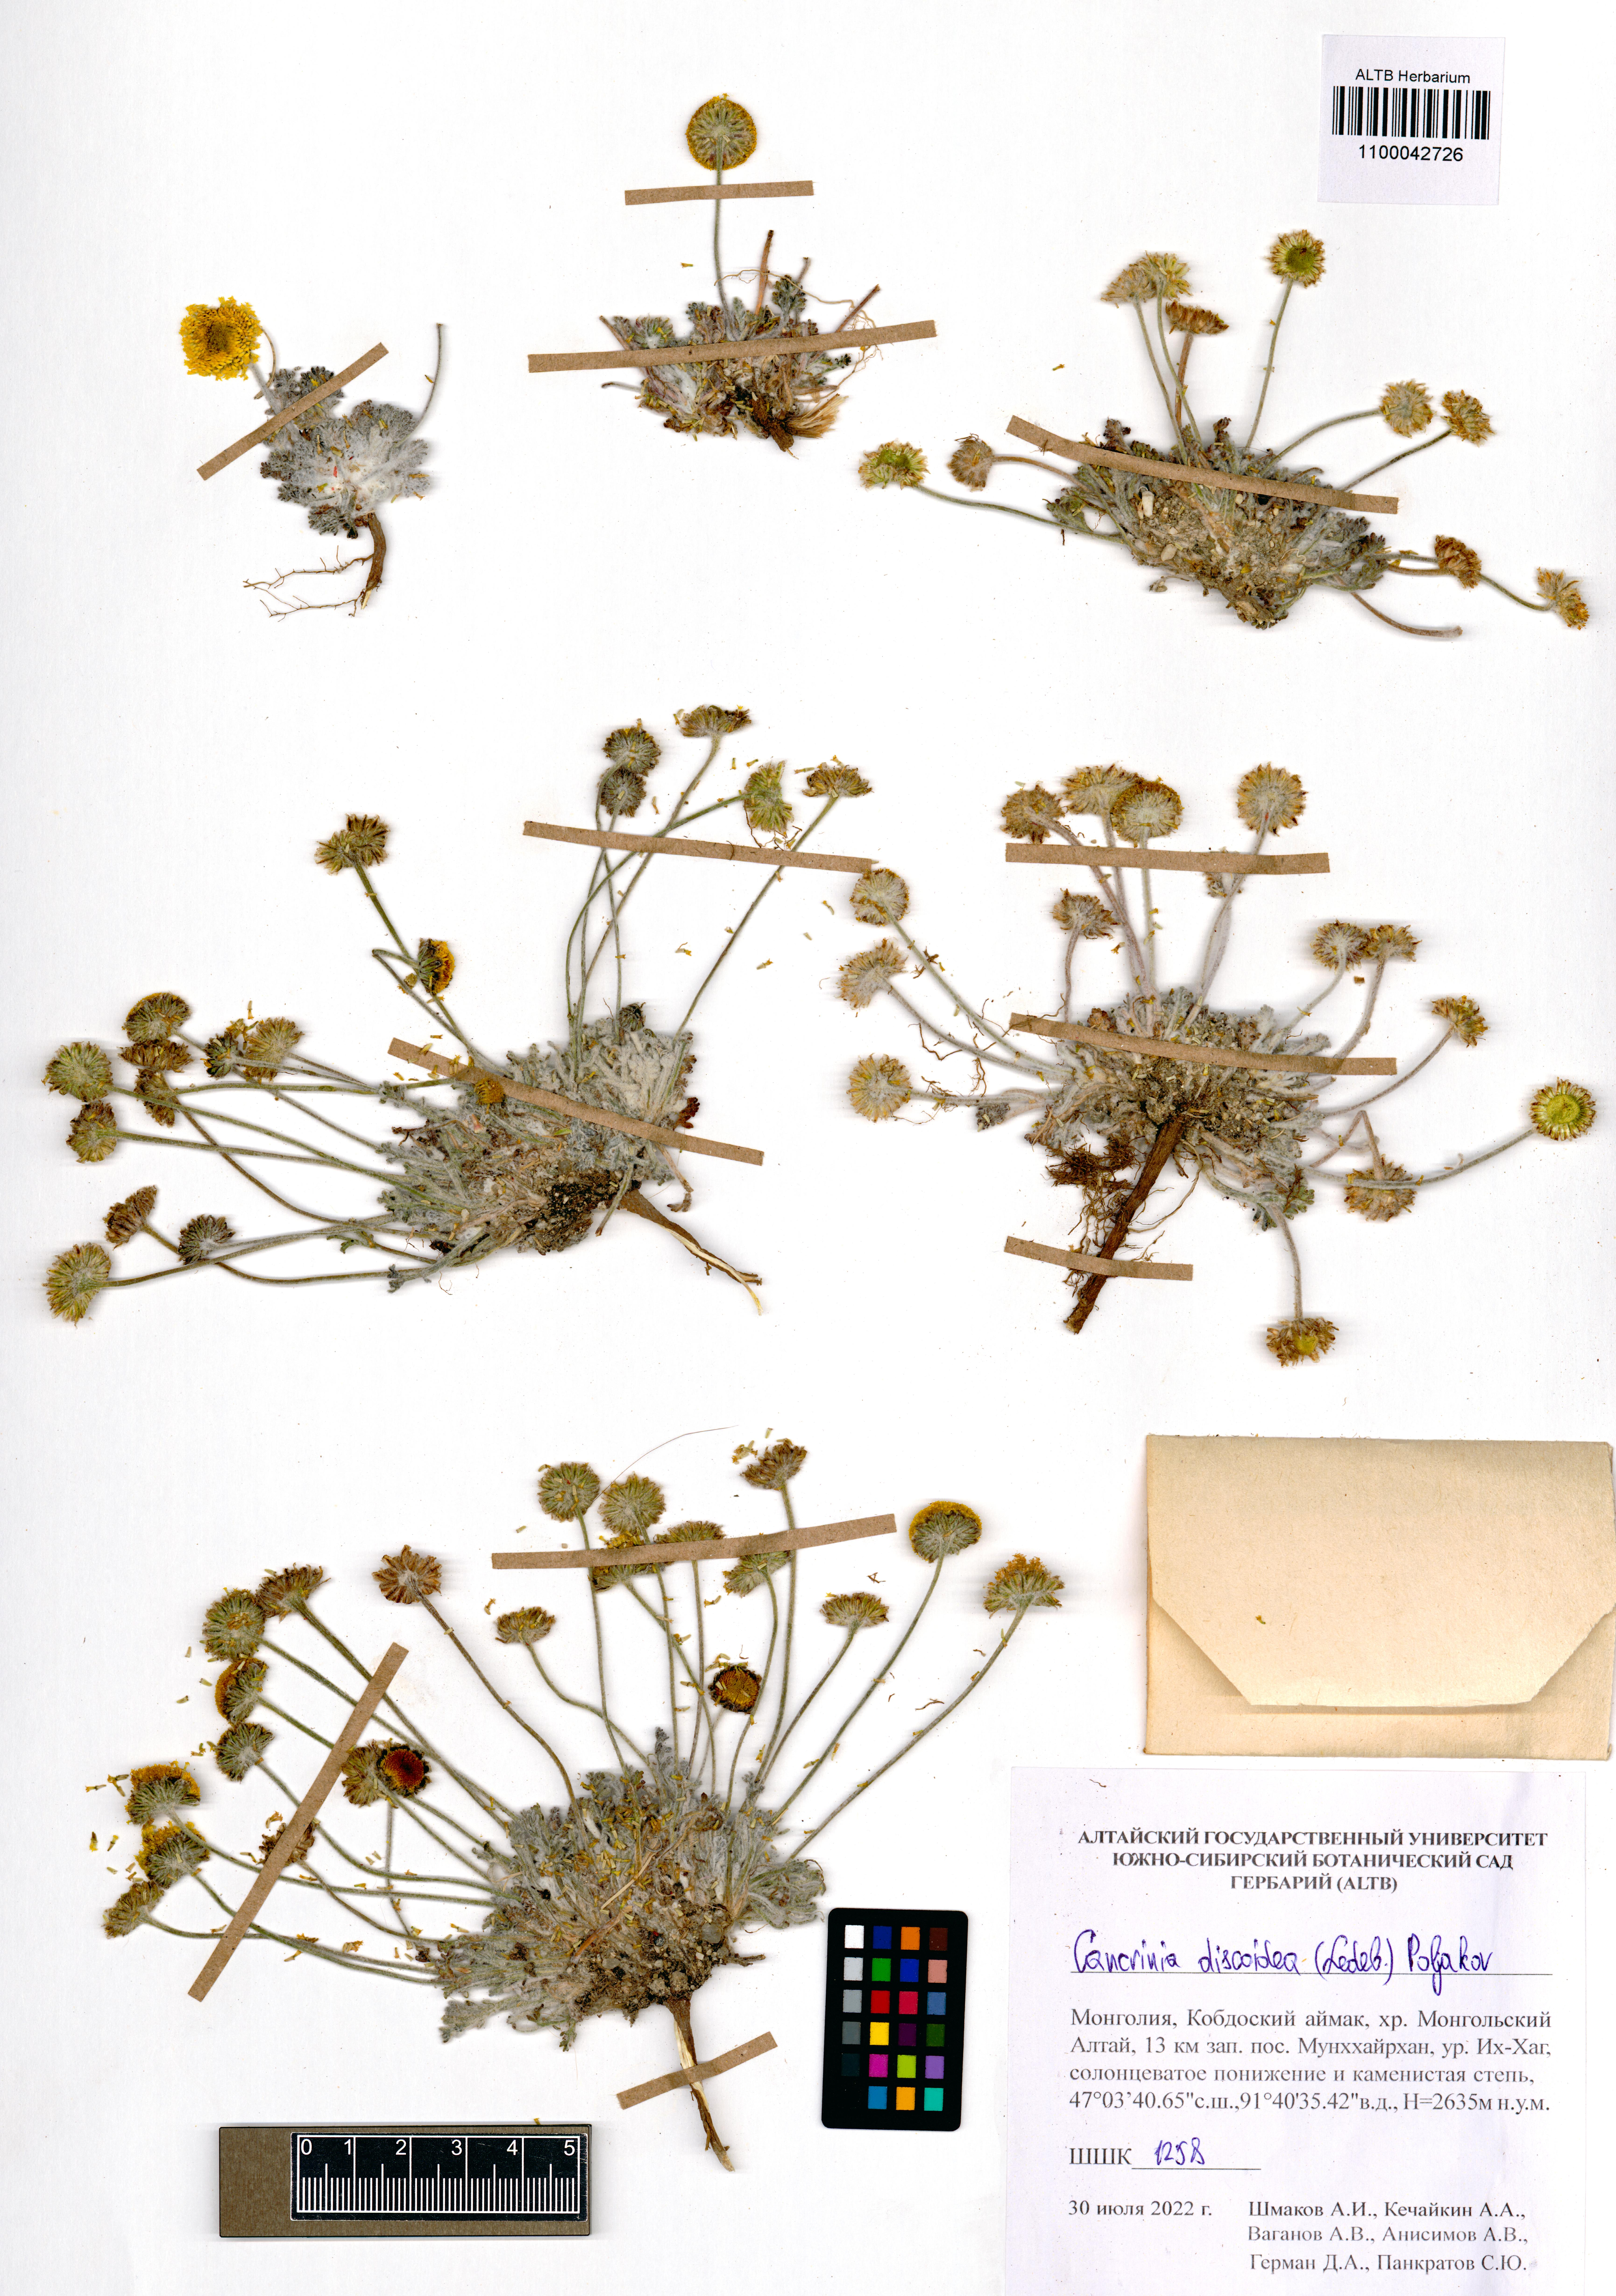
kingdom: Plantae
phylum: Tracheophyta
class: Magnoliopsida
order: Asterales
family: Asteraceae
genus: Cancrinia
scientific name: Cancrinia discoidea
